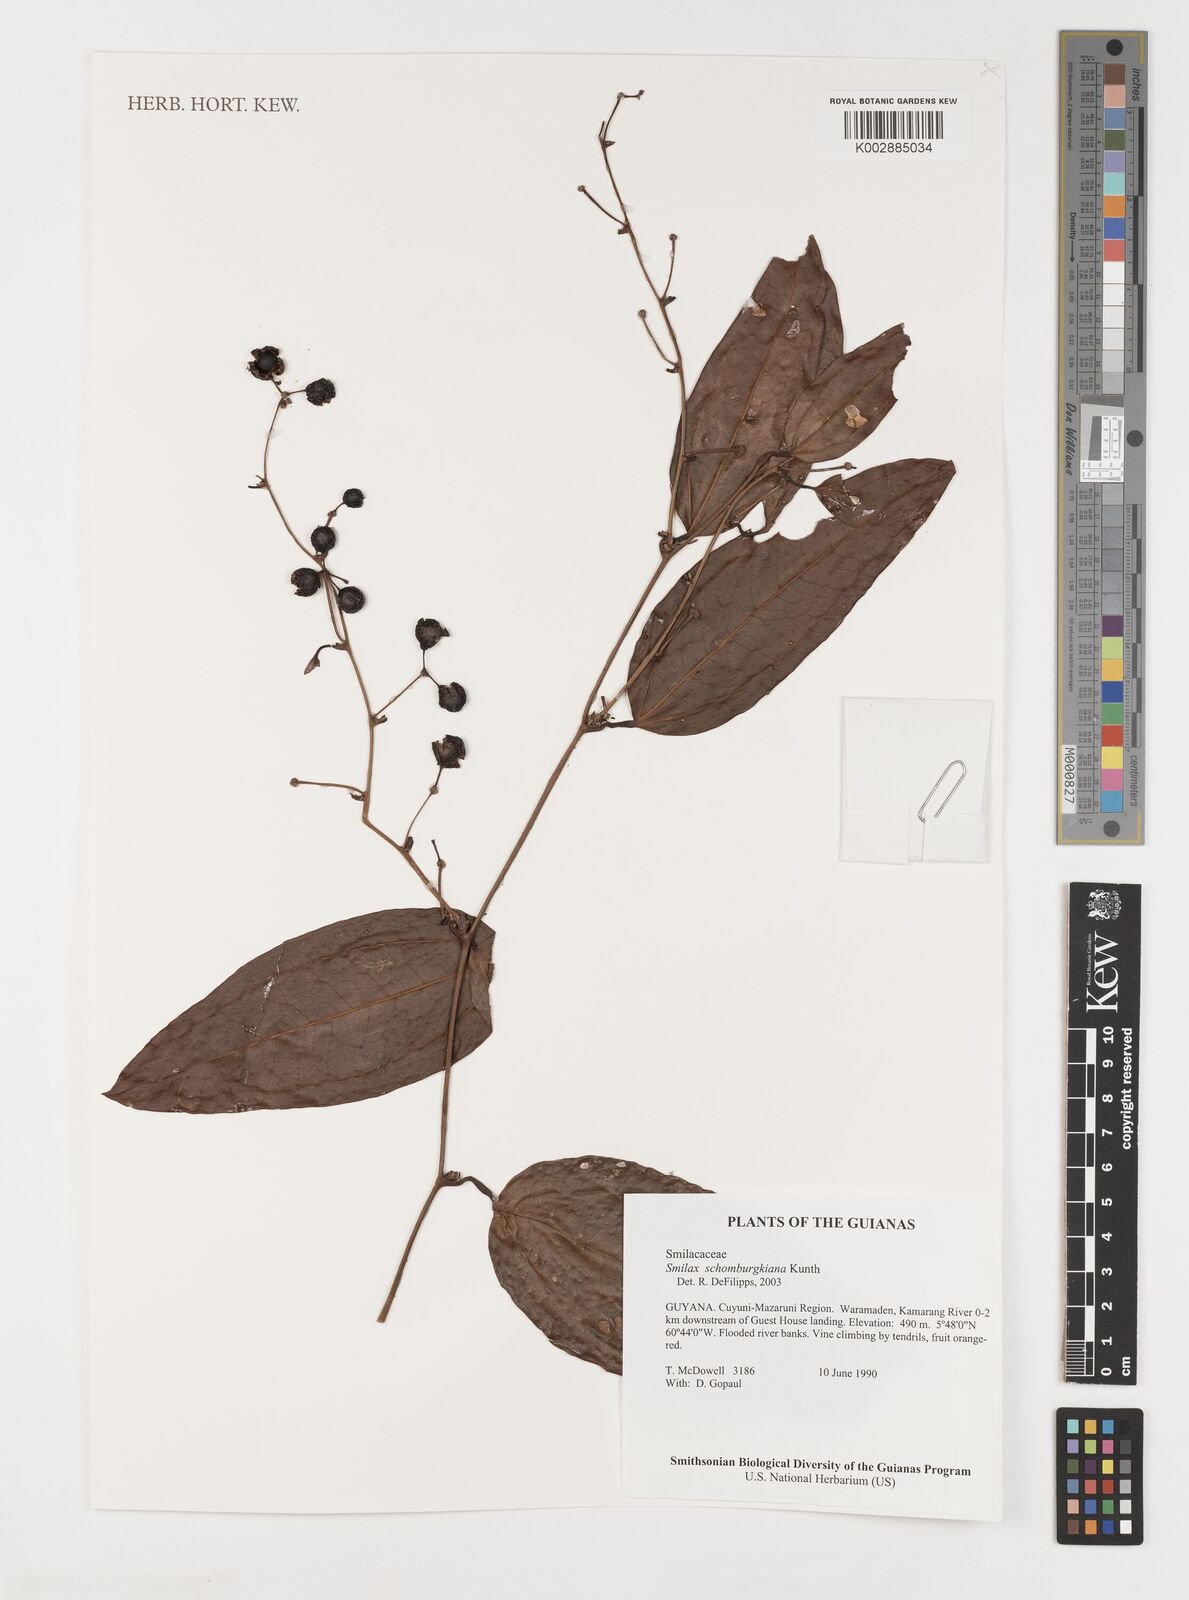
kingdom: Plantae
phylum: Tracheophyta
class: Liliopsida
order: Liliales
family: Smilacaceae
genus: Smilax
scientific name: Smilax schomburgkiana
